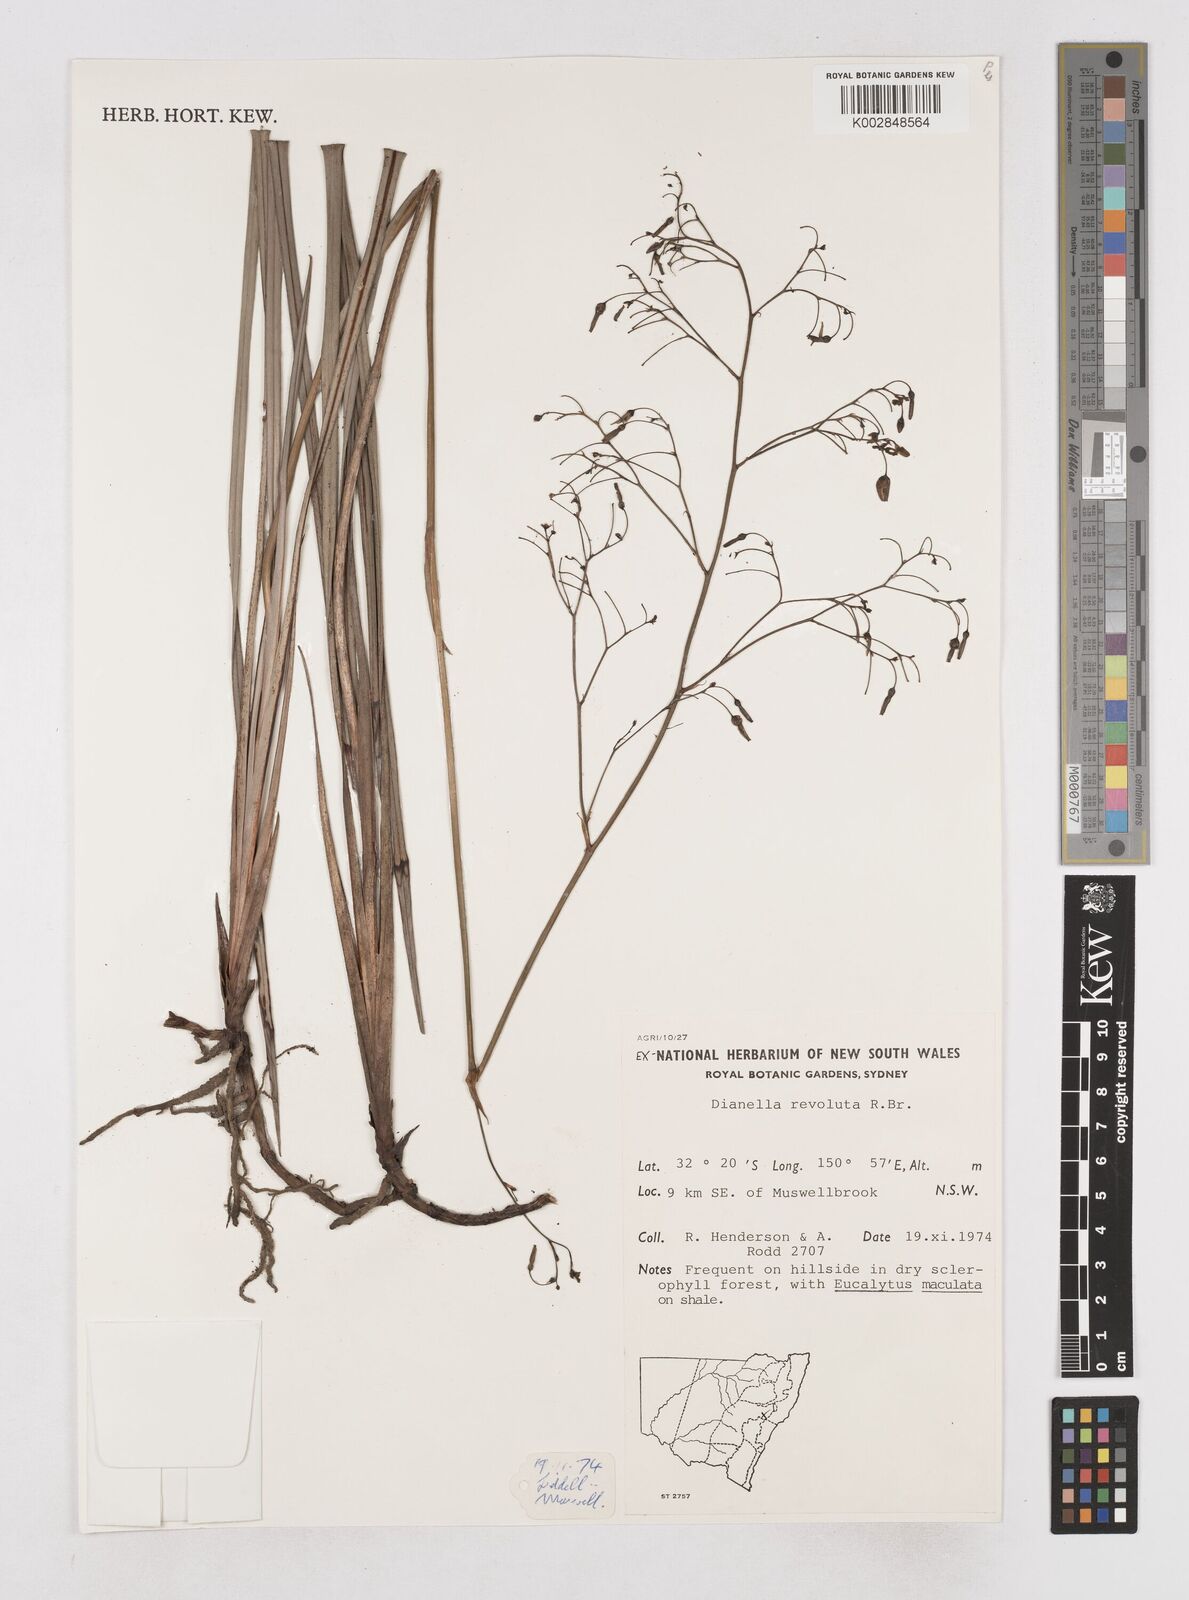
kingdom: Plantae
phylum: Tracheophyta
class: Liliopsida
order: Asparagales
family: Asphodelaceae
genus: Dianella
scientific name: Dianella revoluta
